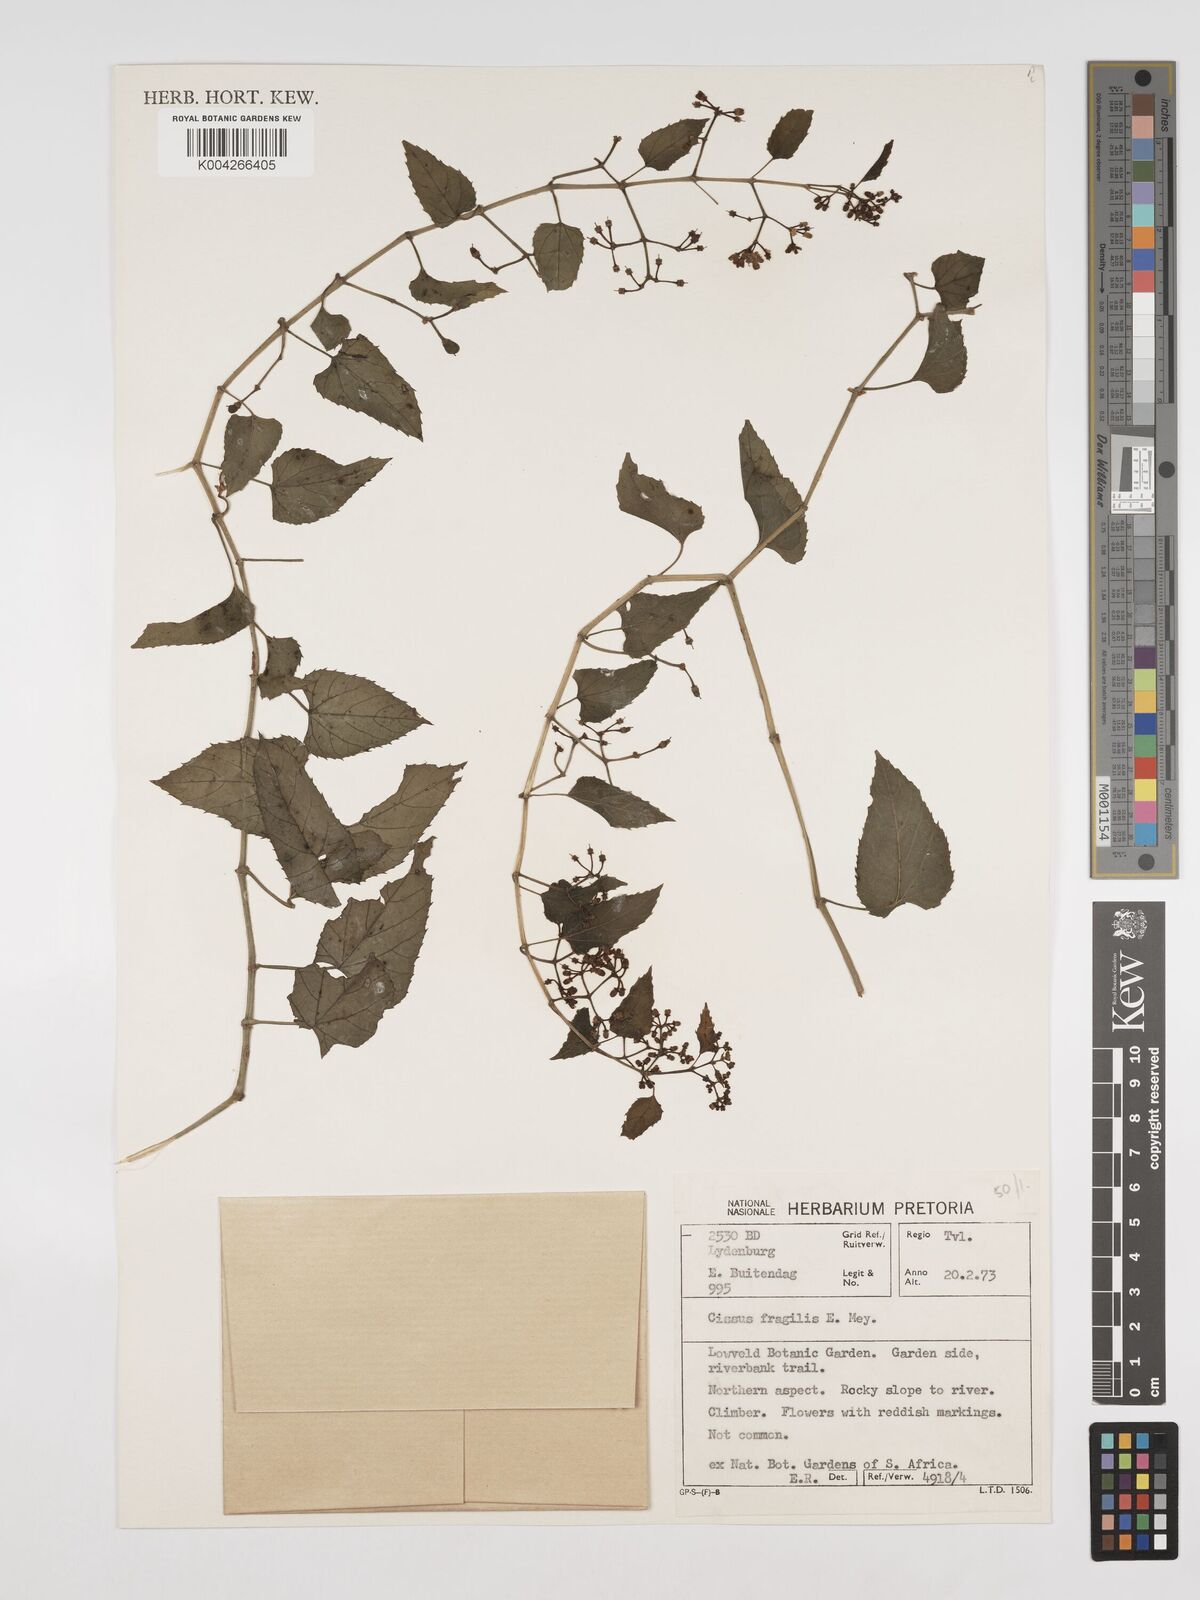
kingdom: Plantae
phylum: Tracheophyta
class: Magnoliopsida
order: Vitales
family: Vitaceae
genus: Cissus
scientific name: Cissus fragilis
